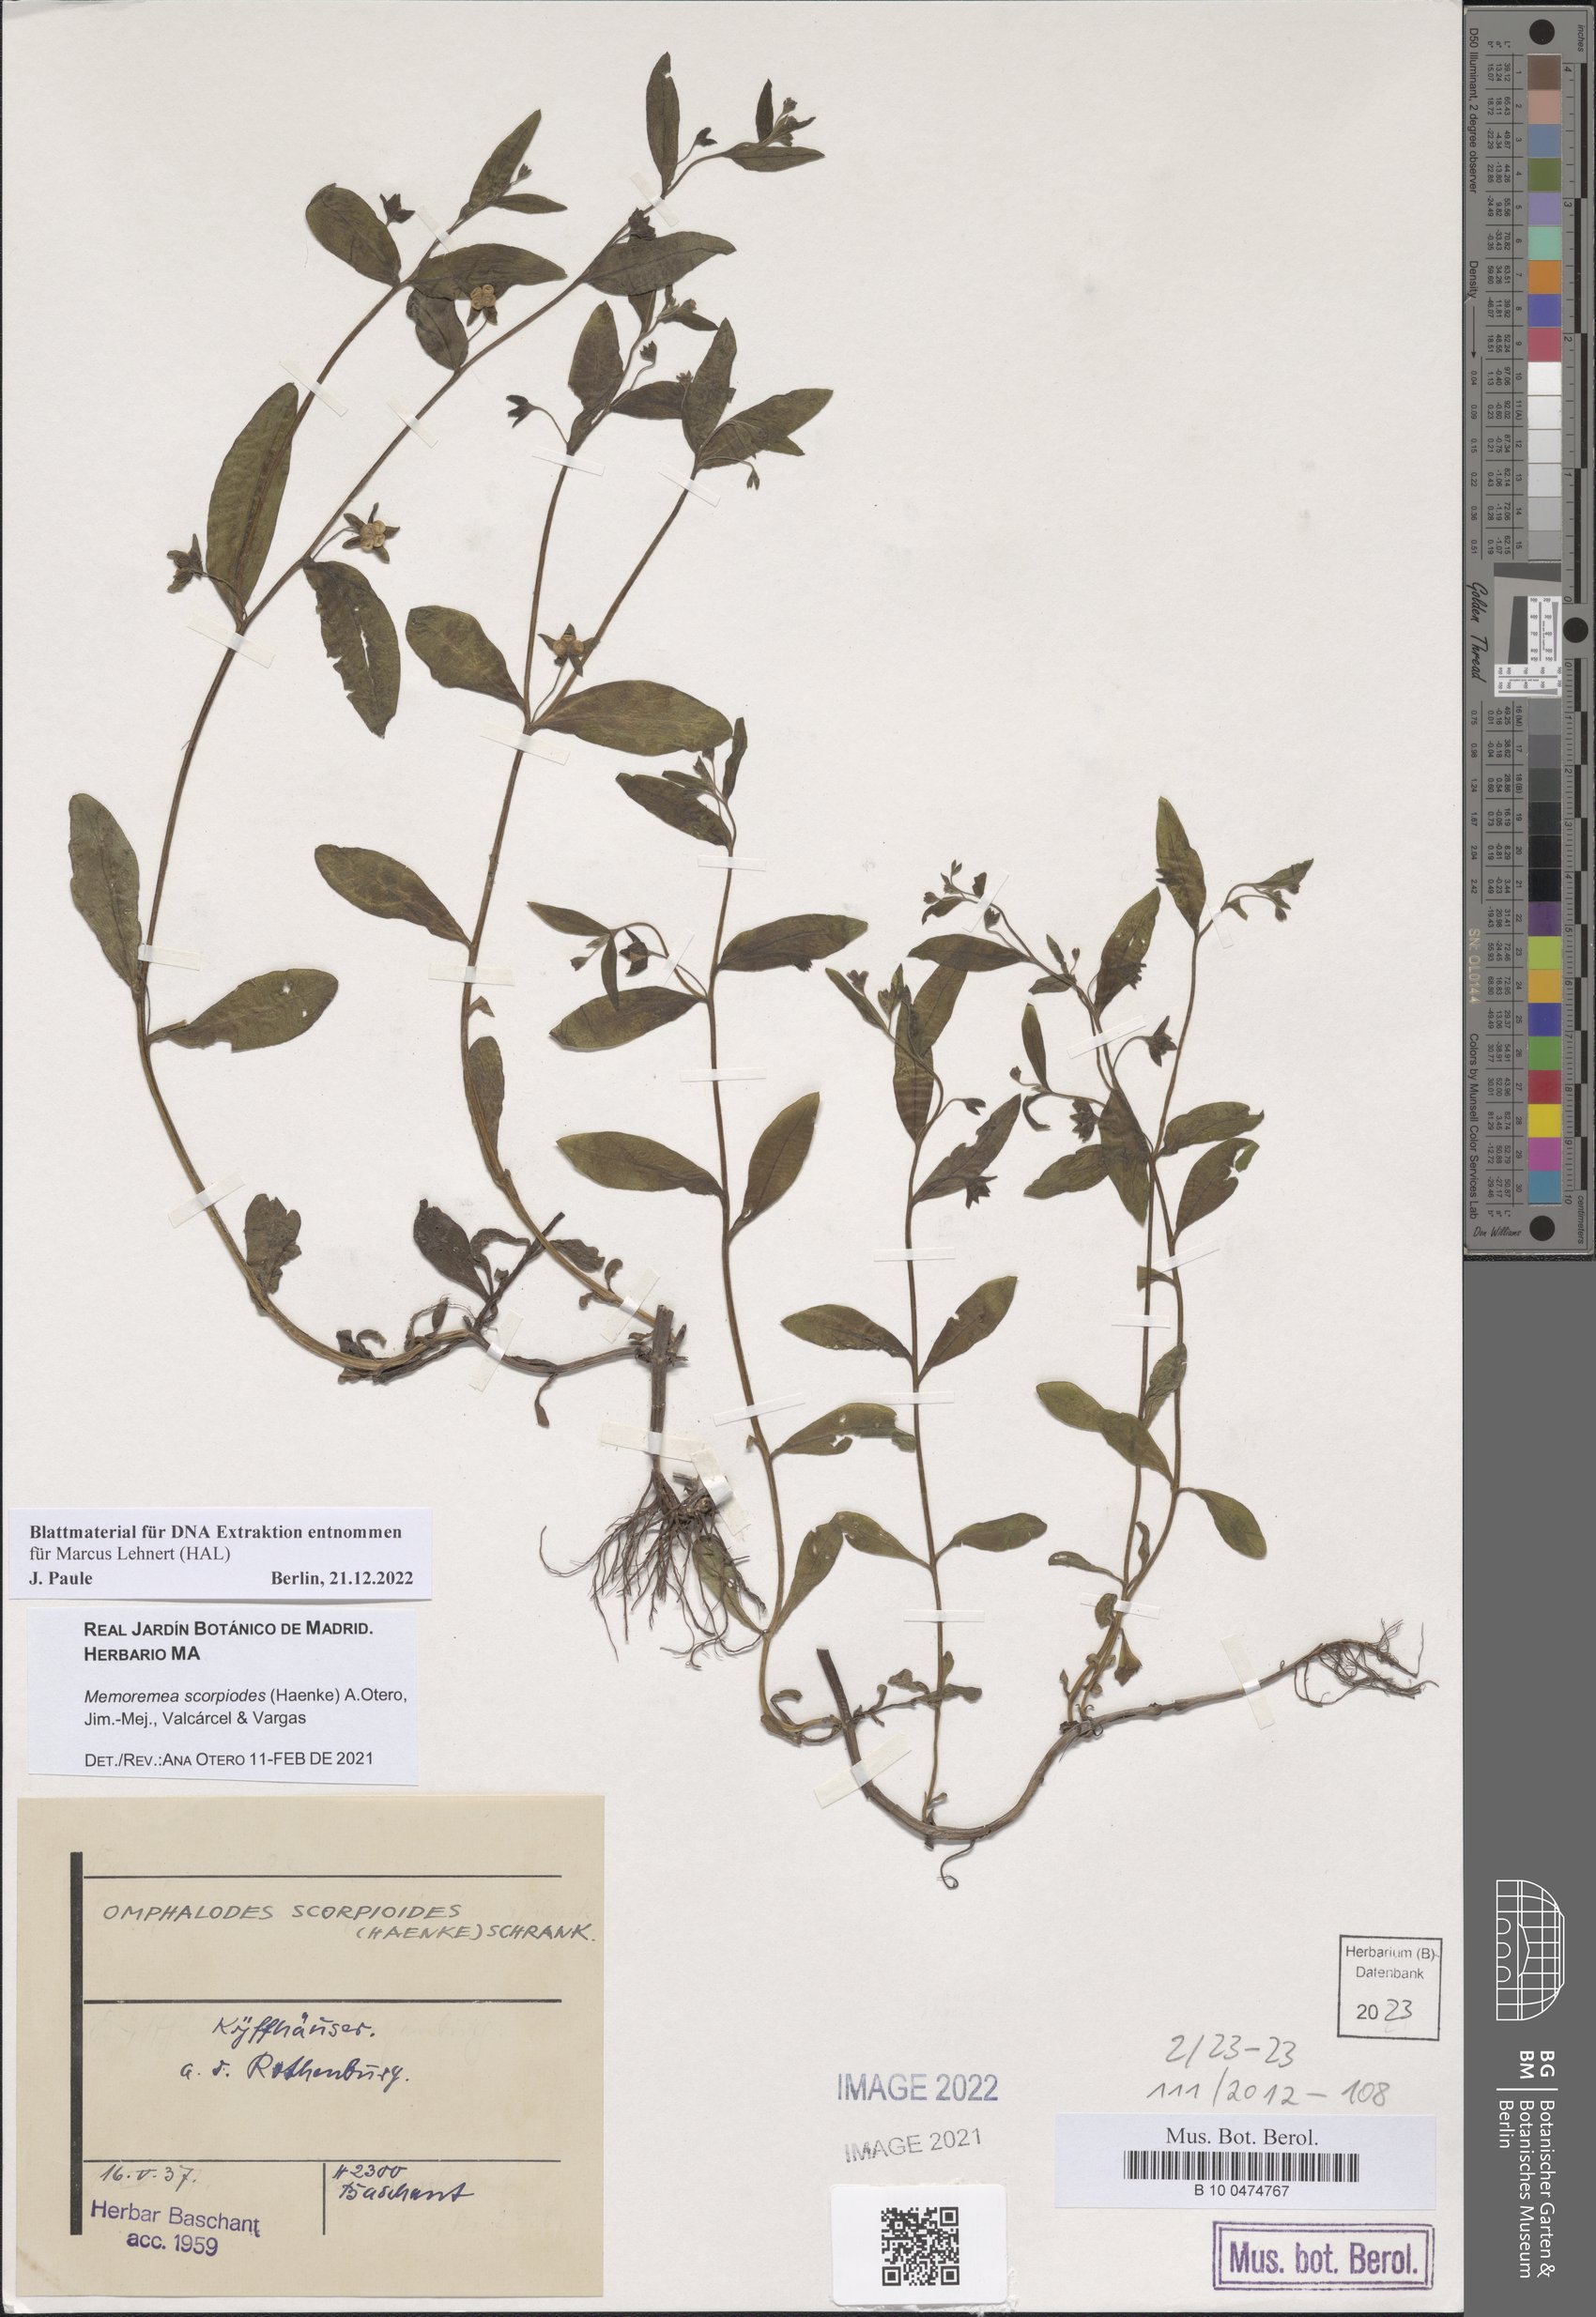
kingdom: Plantae
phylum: Tracheophyta
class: Magnoliopsida
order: Boraginales
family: Boraginaceae
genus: Memoremea
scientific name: Memoremea scorpioides
